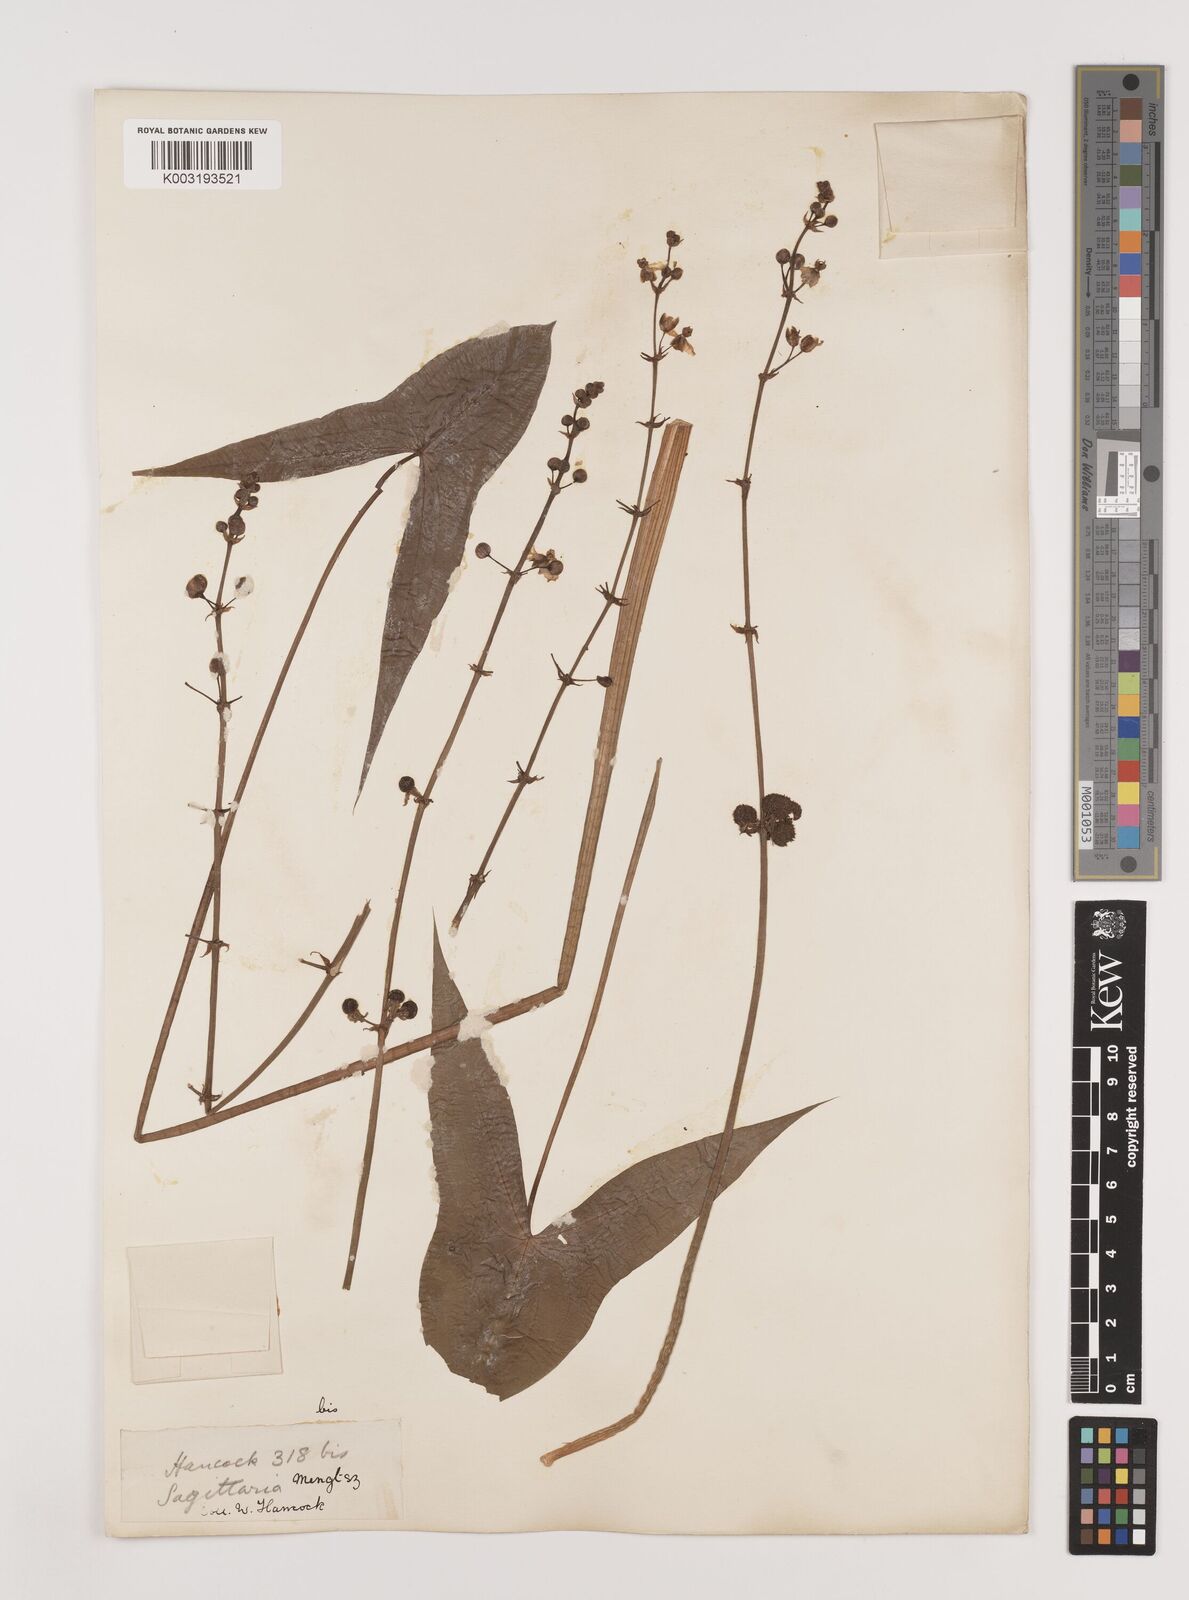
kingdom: Plantae
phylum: Tracheophyta
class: Liliopsida
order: Alismatales
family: Alismataceae
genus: Sagittaria
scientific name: Sagittaria sagittifolia
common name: Arrowhead
